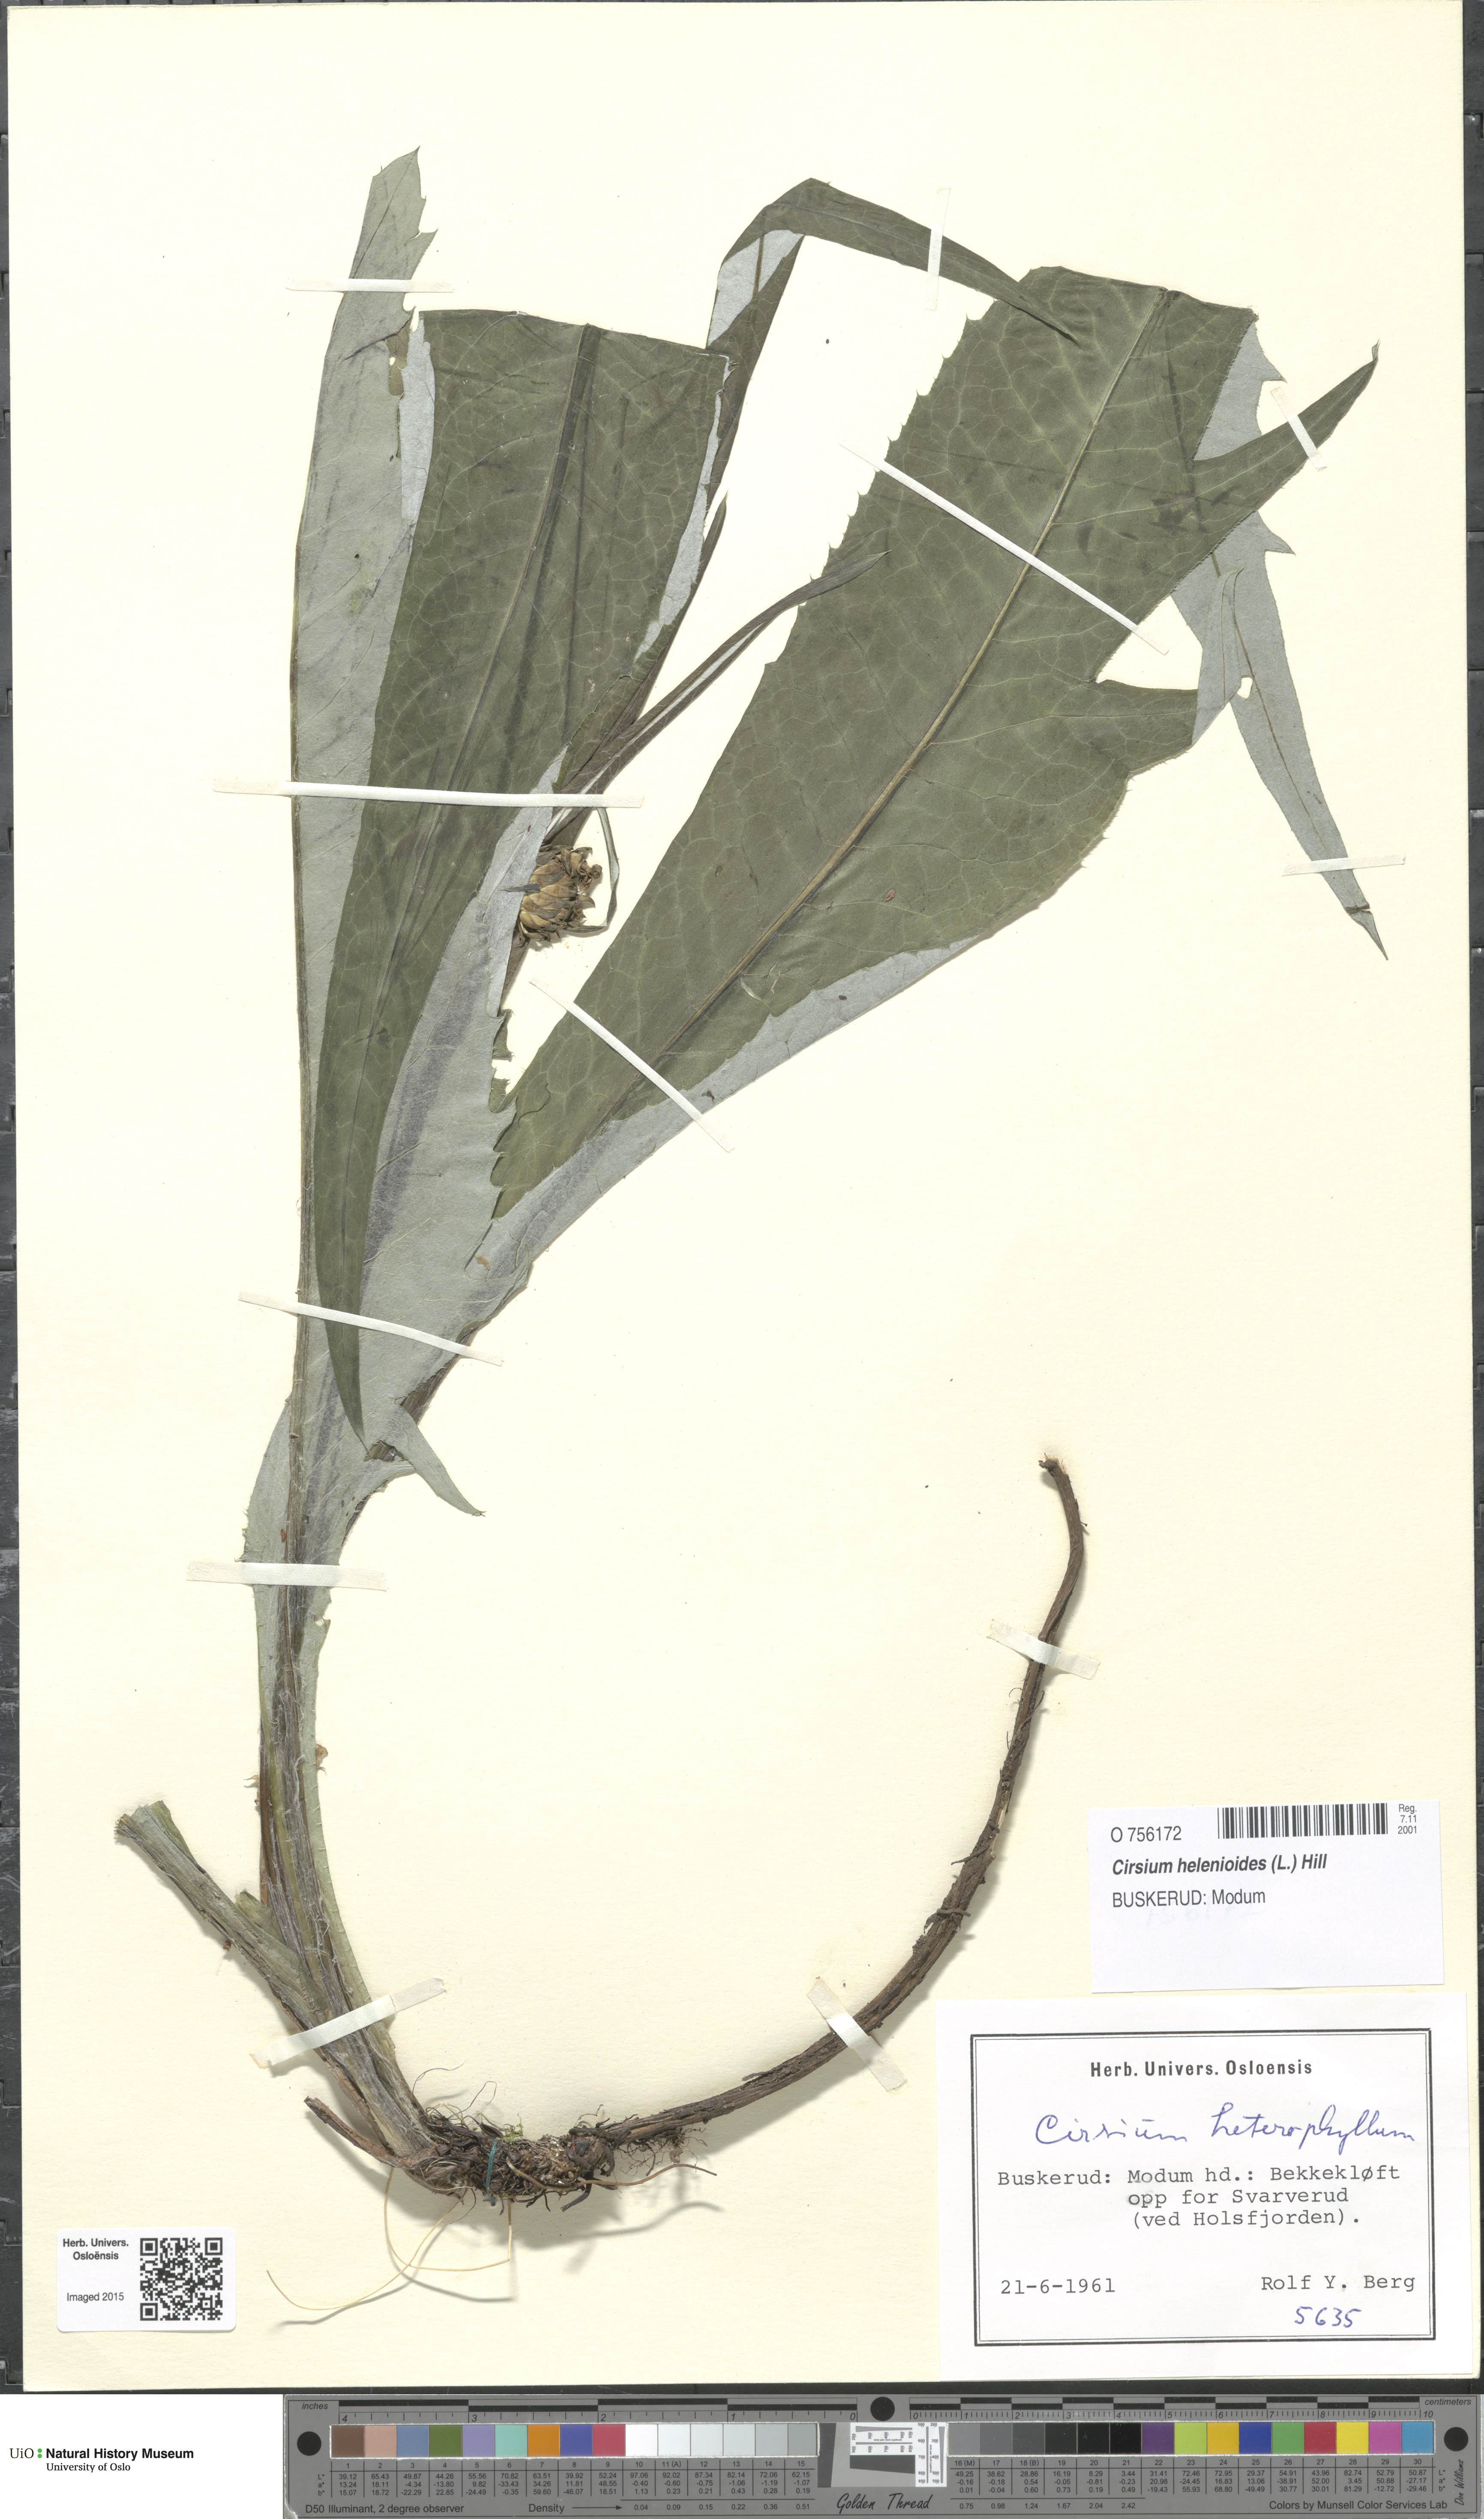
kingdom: Plantae
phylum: Tracheophyta
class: Magnoliopsida
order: Asterales
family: Asteraceae
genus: Cirsium
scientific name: Cirsium heterophyllum
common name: Melancholy thistle
